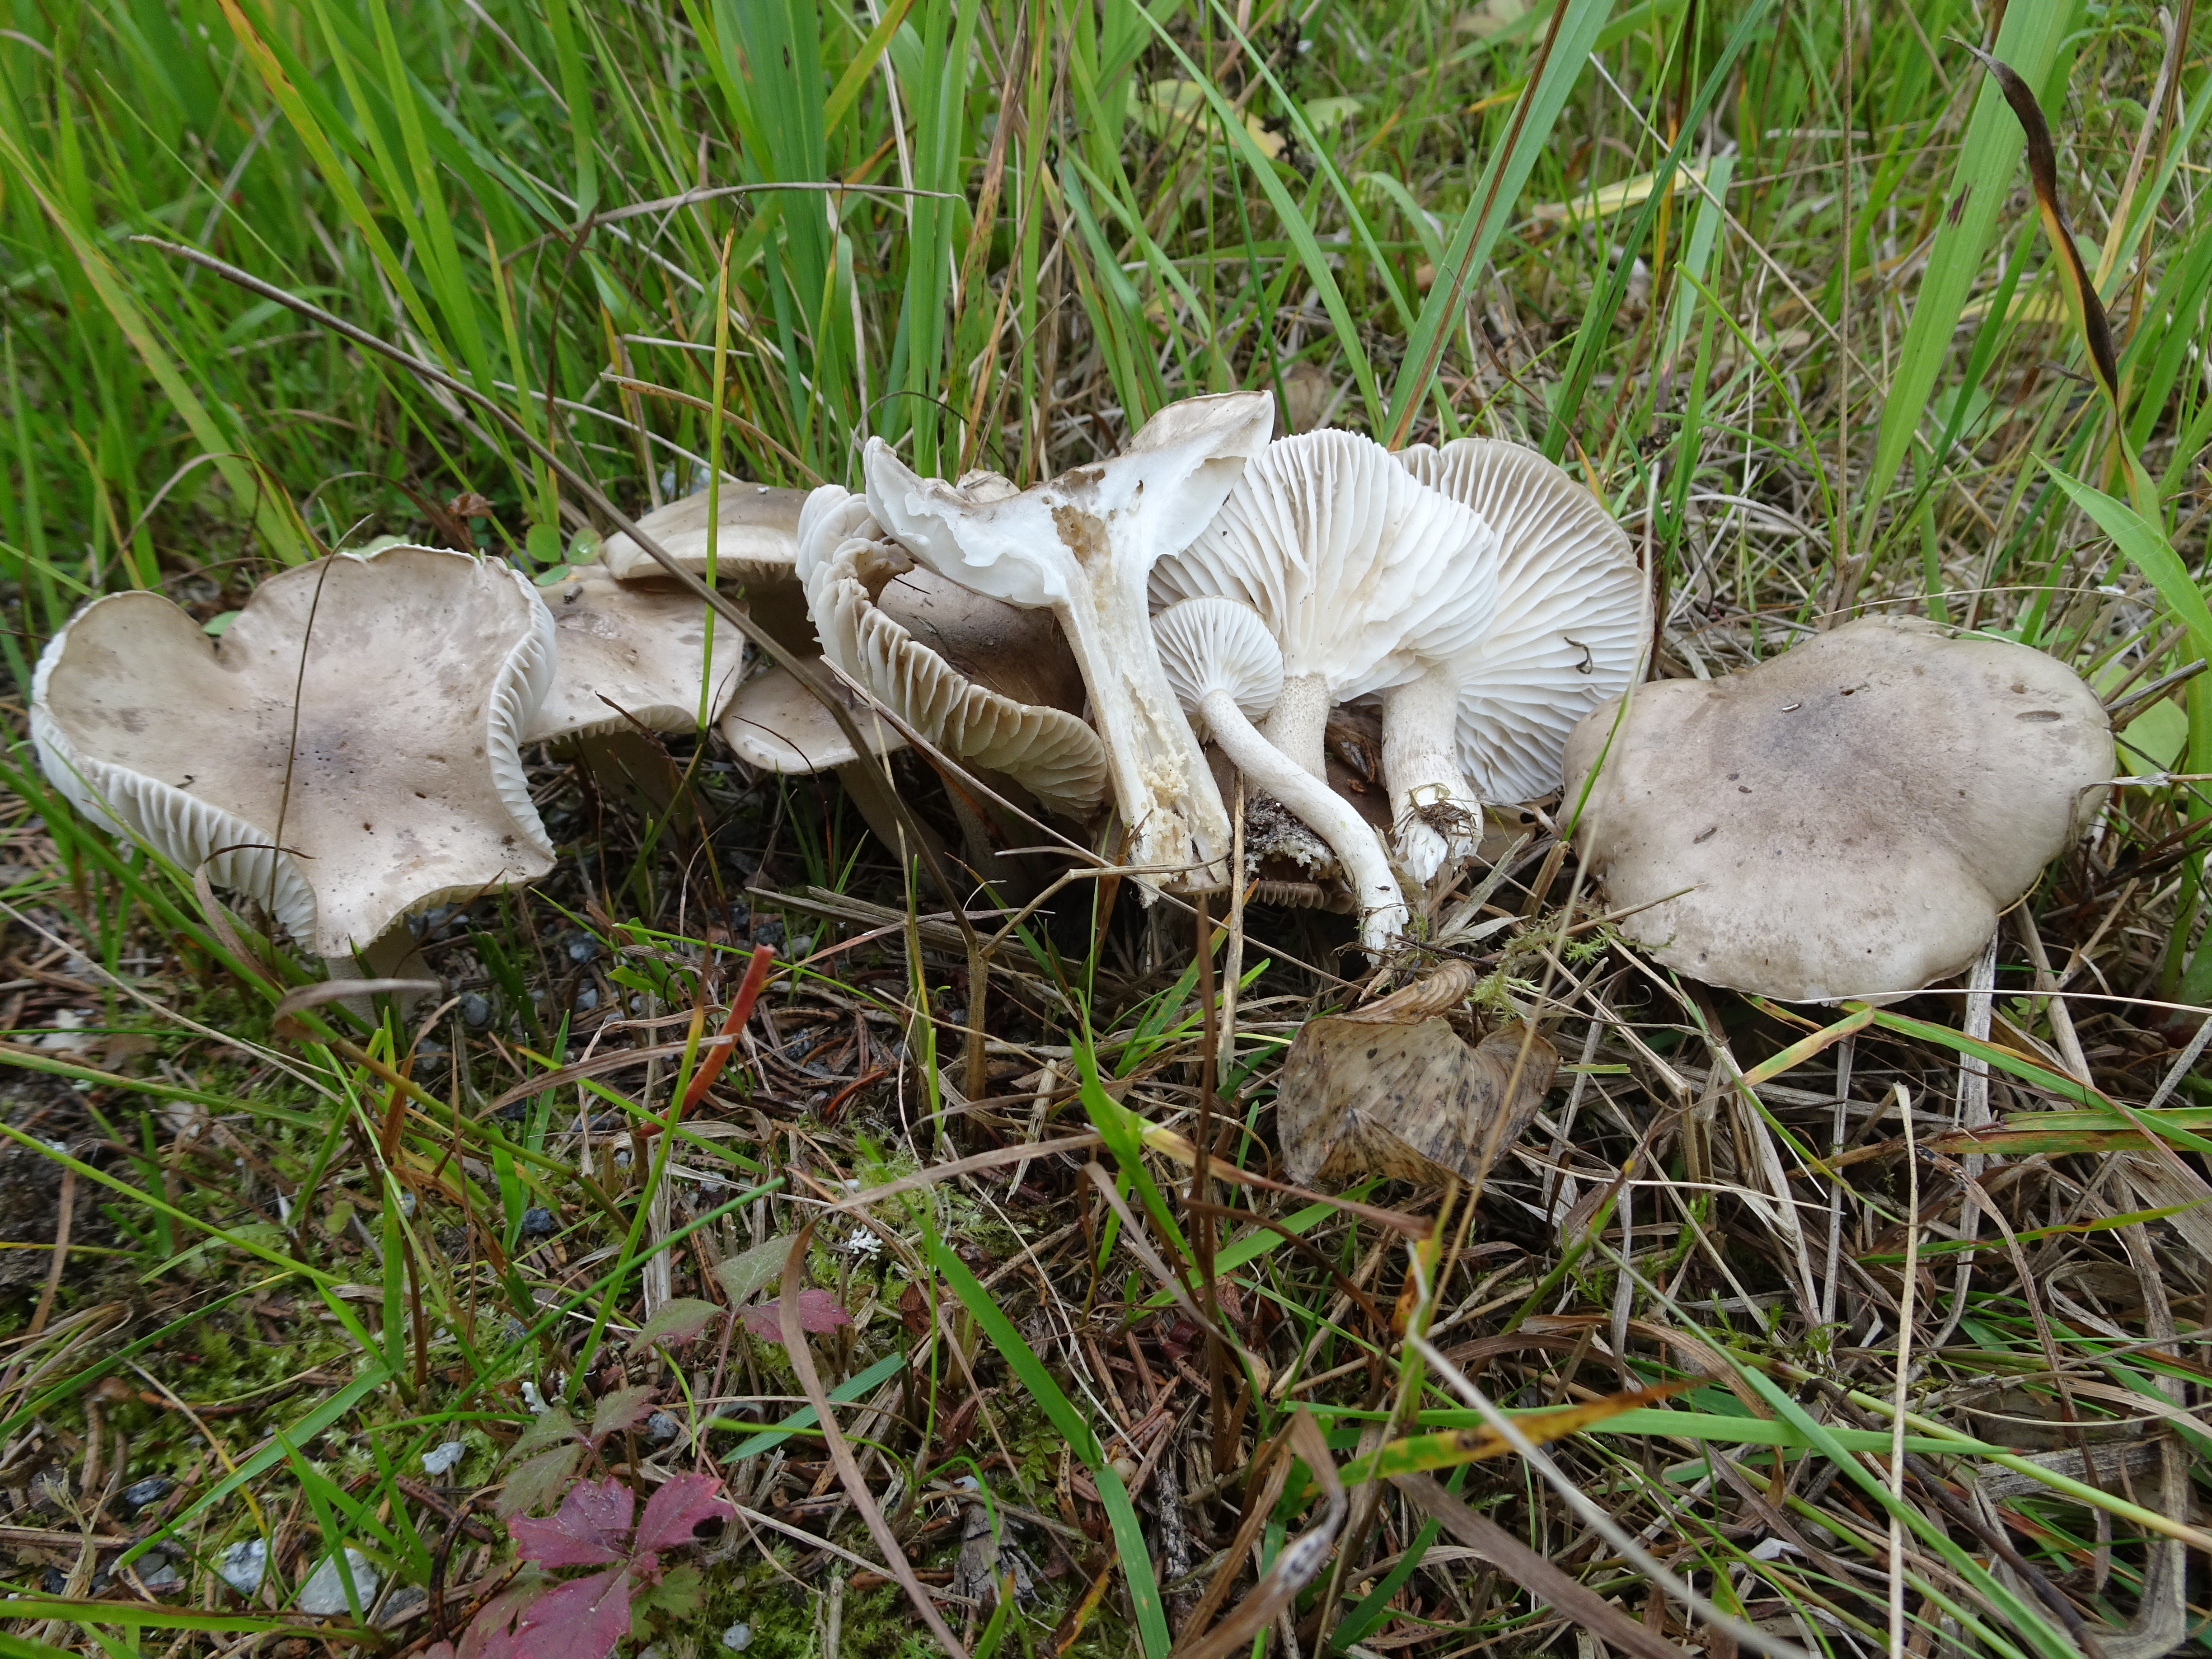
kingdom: Fungi
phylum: Basidiomycota
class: Agaricomycetes
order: Agaricales
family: Hygrophoraceae
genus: Hygrophorus
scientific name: Hygrophorus agathosmus
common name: Almond woodwax
